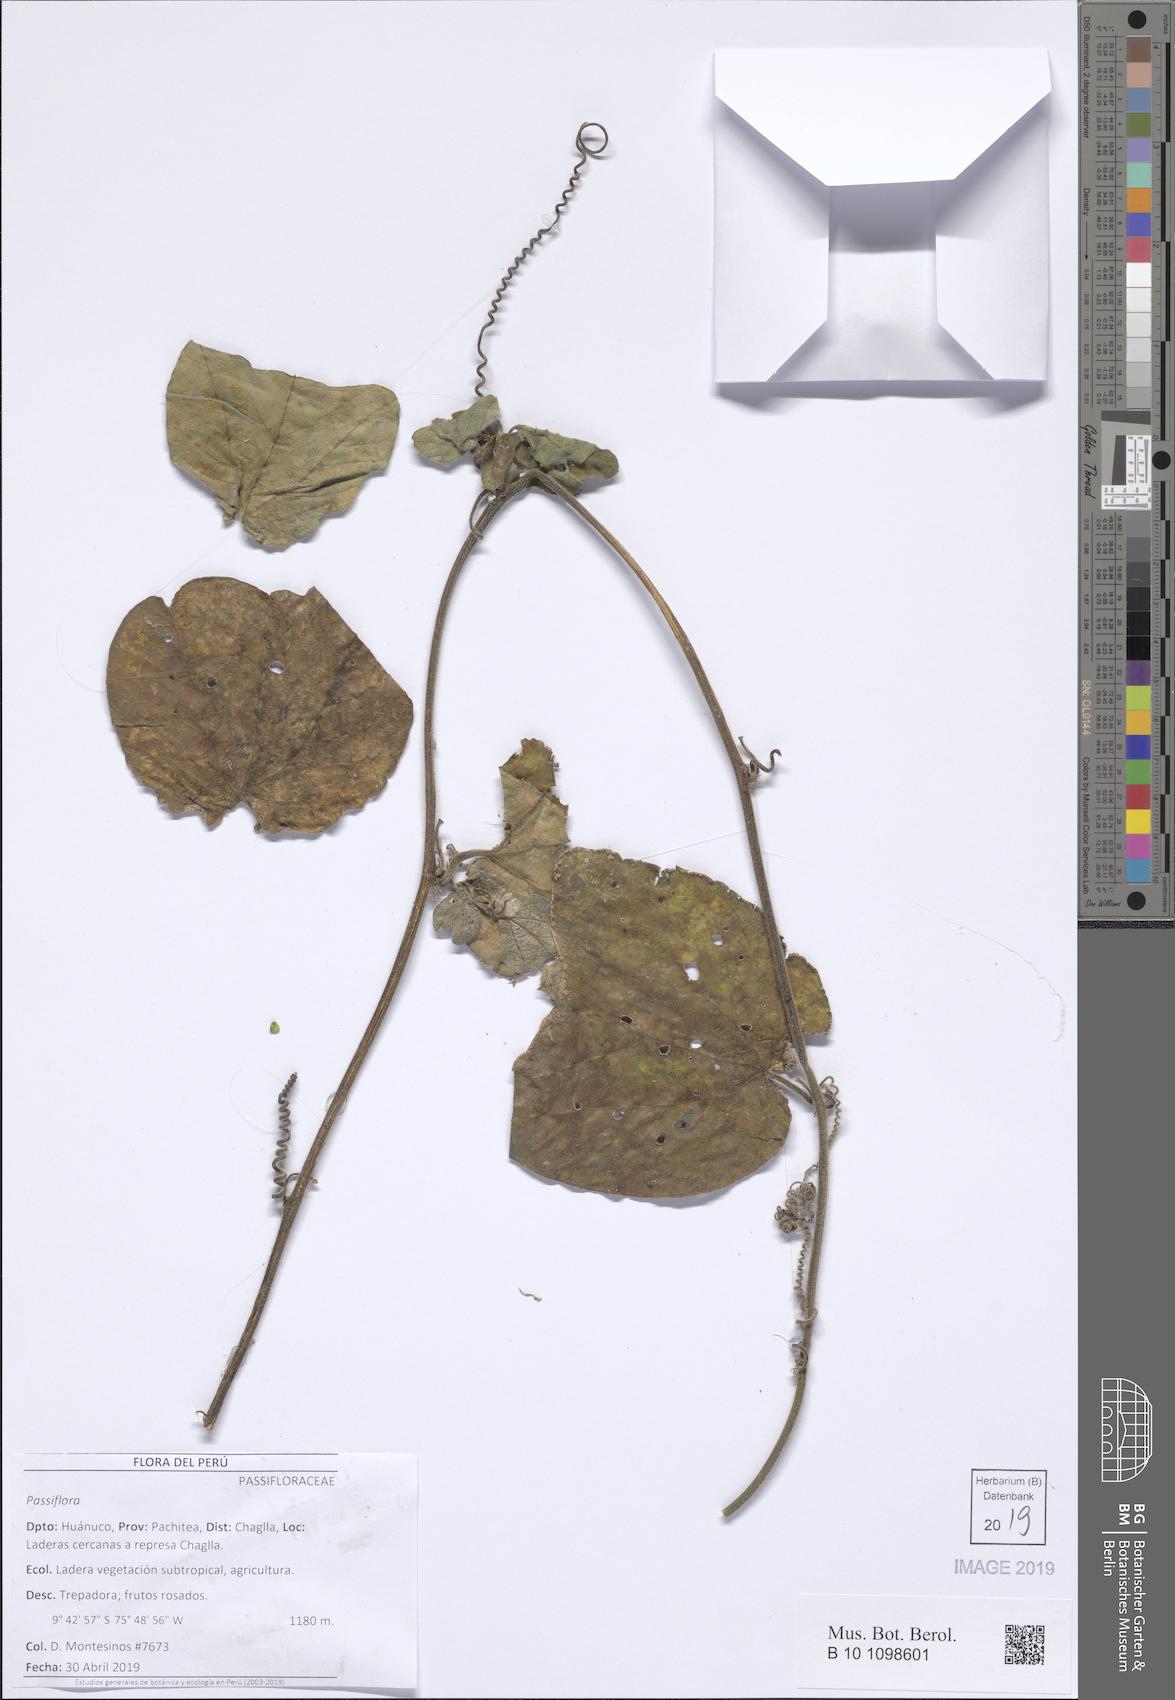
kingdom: Plantae
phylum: Tracheophyta
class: Magnoliopsida
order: Malpighiales
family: Passifloraceae
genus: Passiflora
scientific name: Passiflora
